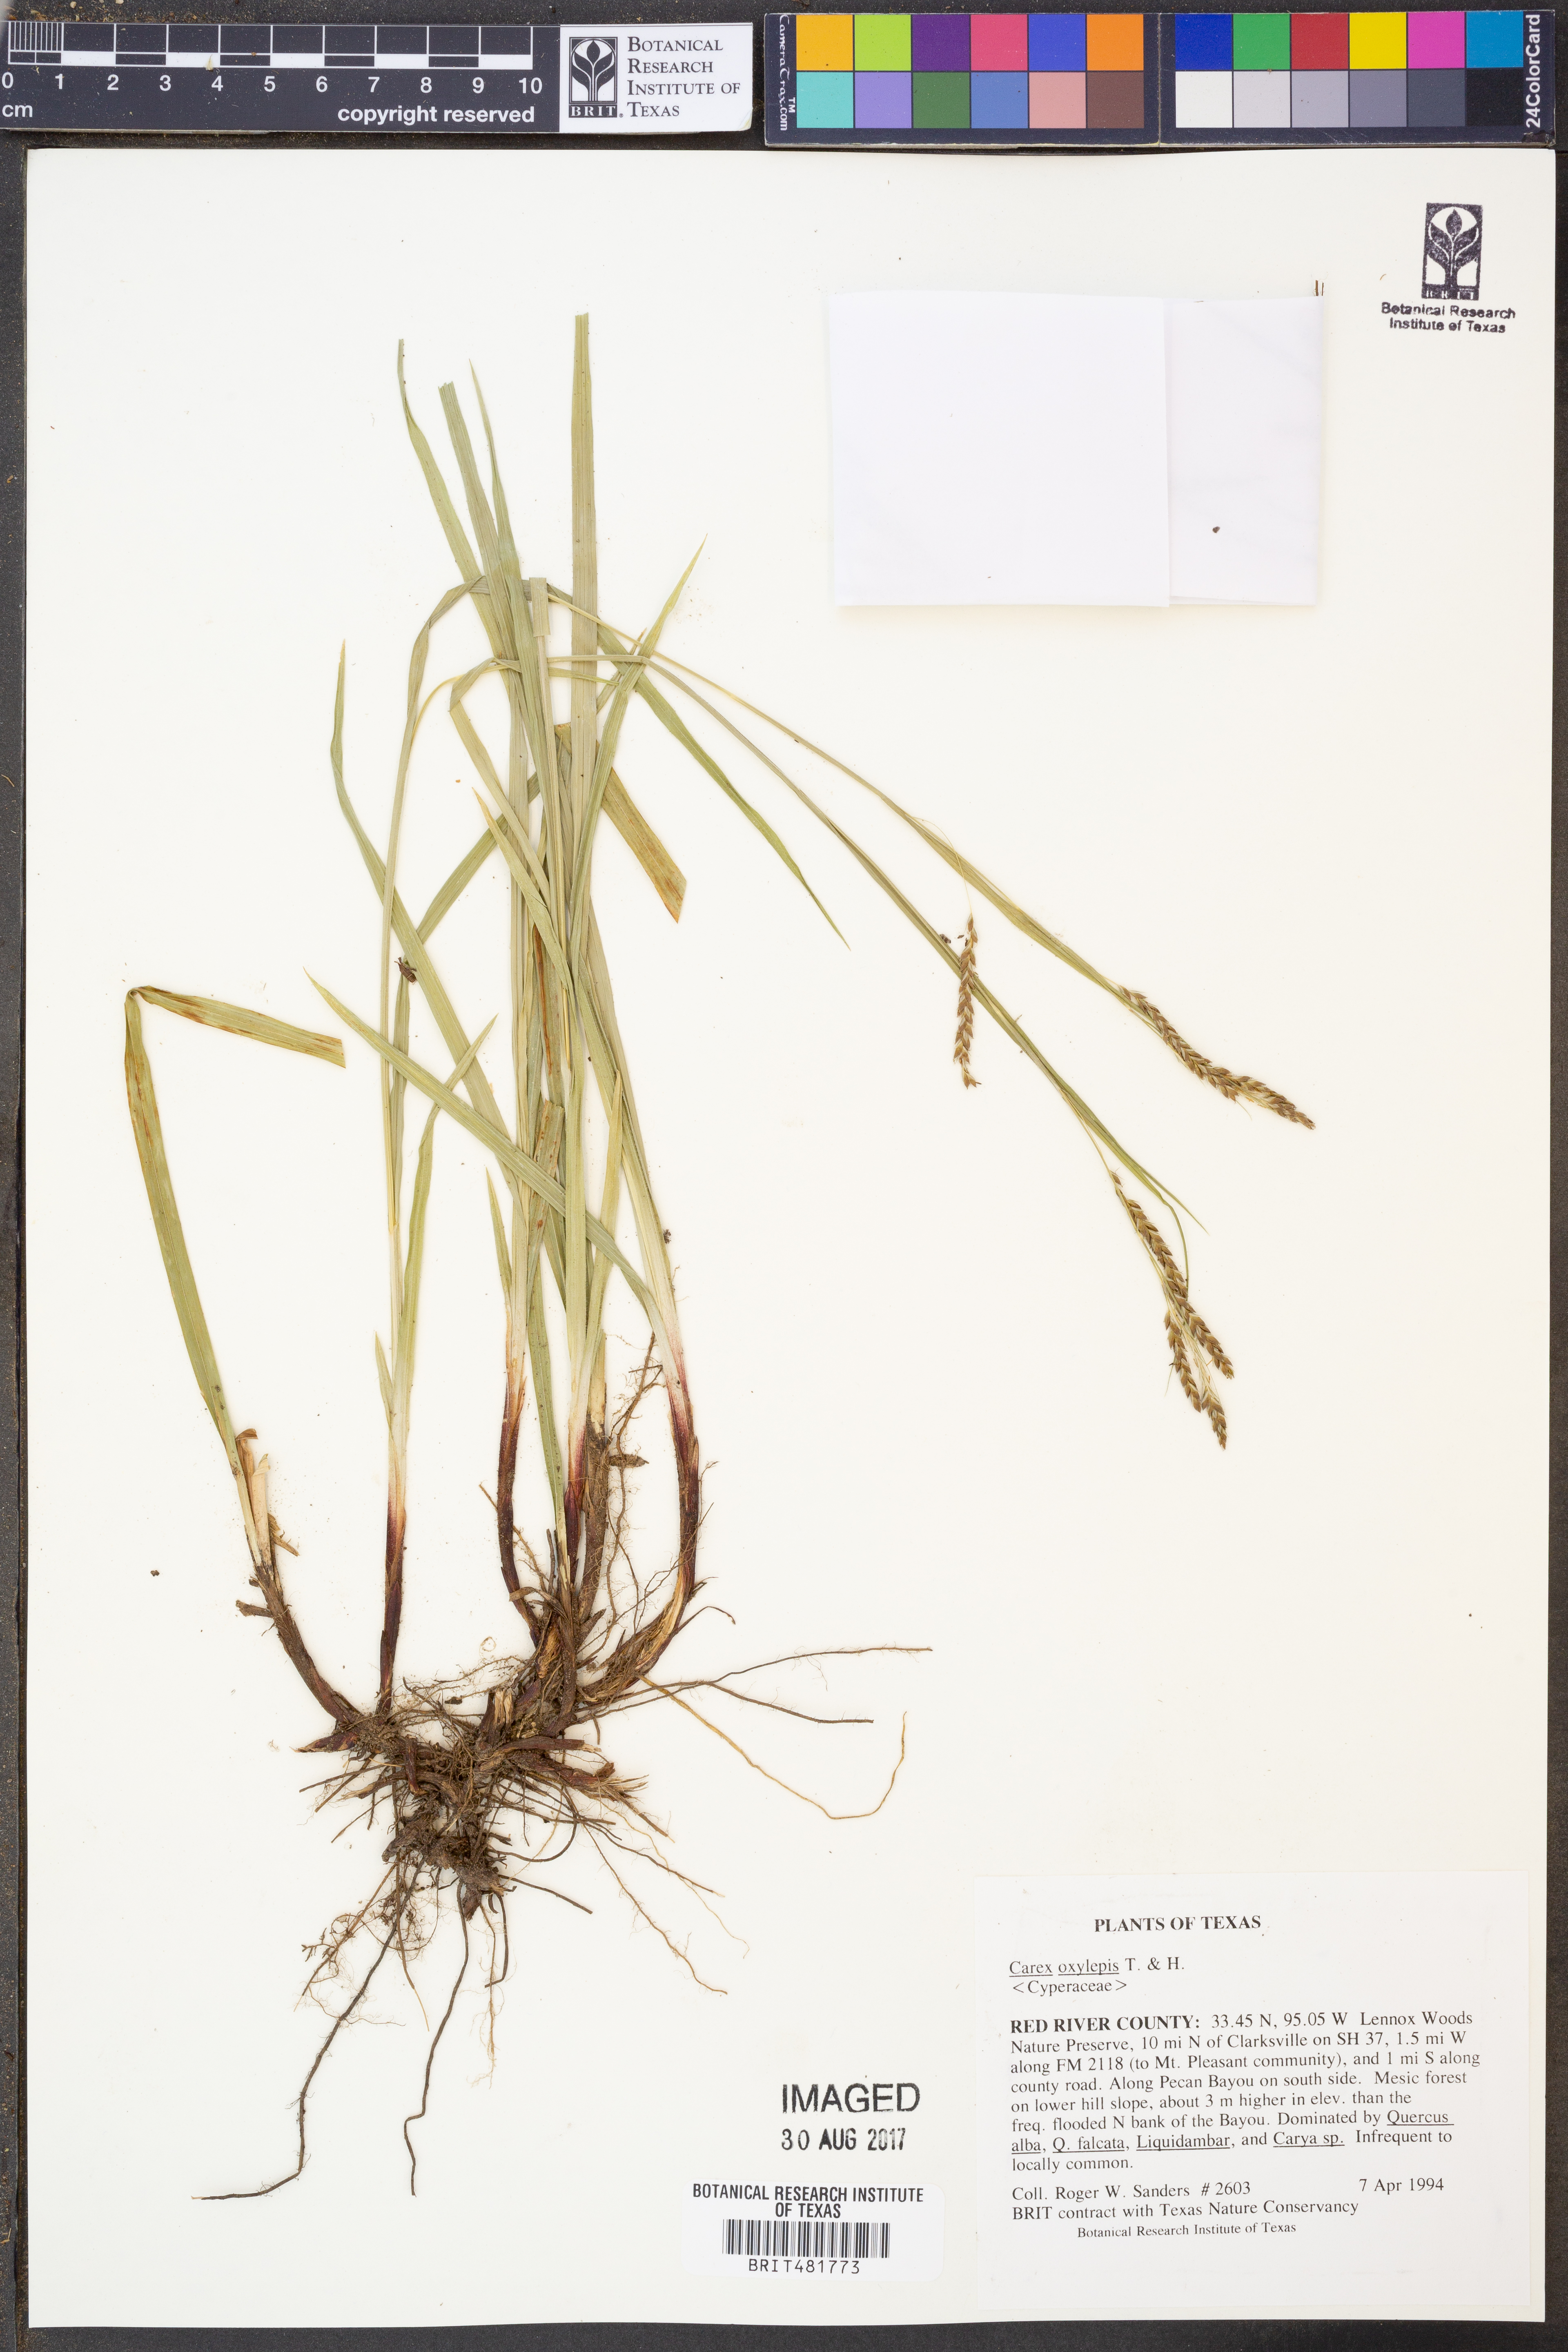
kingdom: Plantae
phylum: Tracheophyta
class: Liliopsida
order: Poales
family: Cyperaceae
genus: Carex
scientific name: Carex oxylepis
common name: Sharpscale sedge
